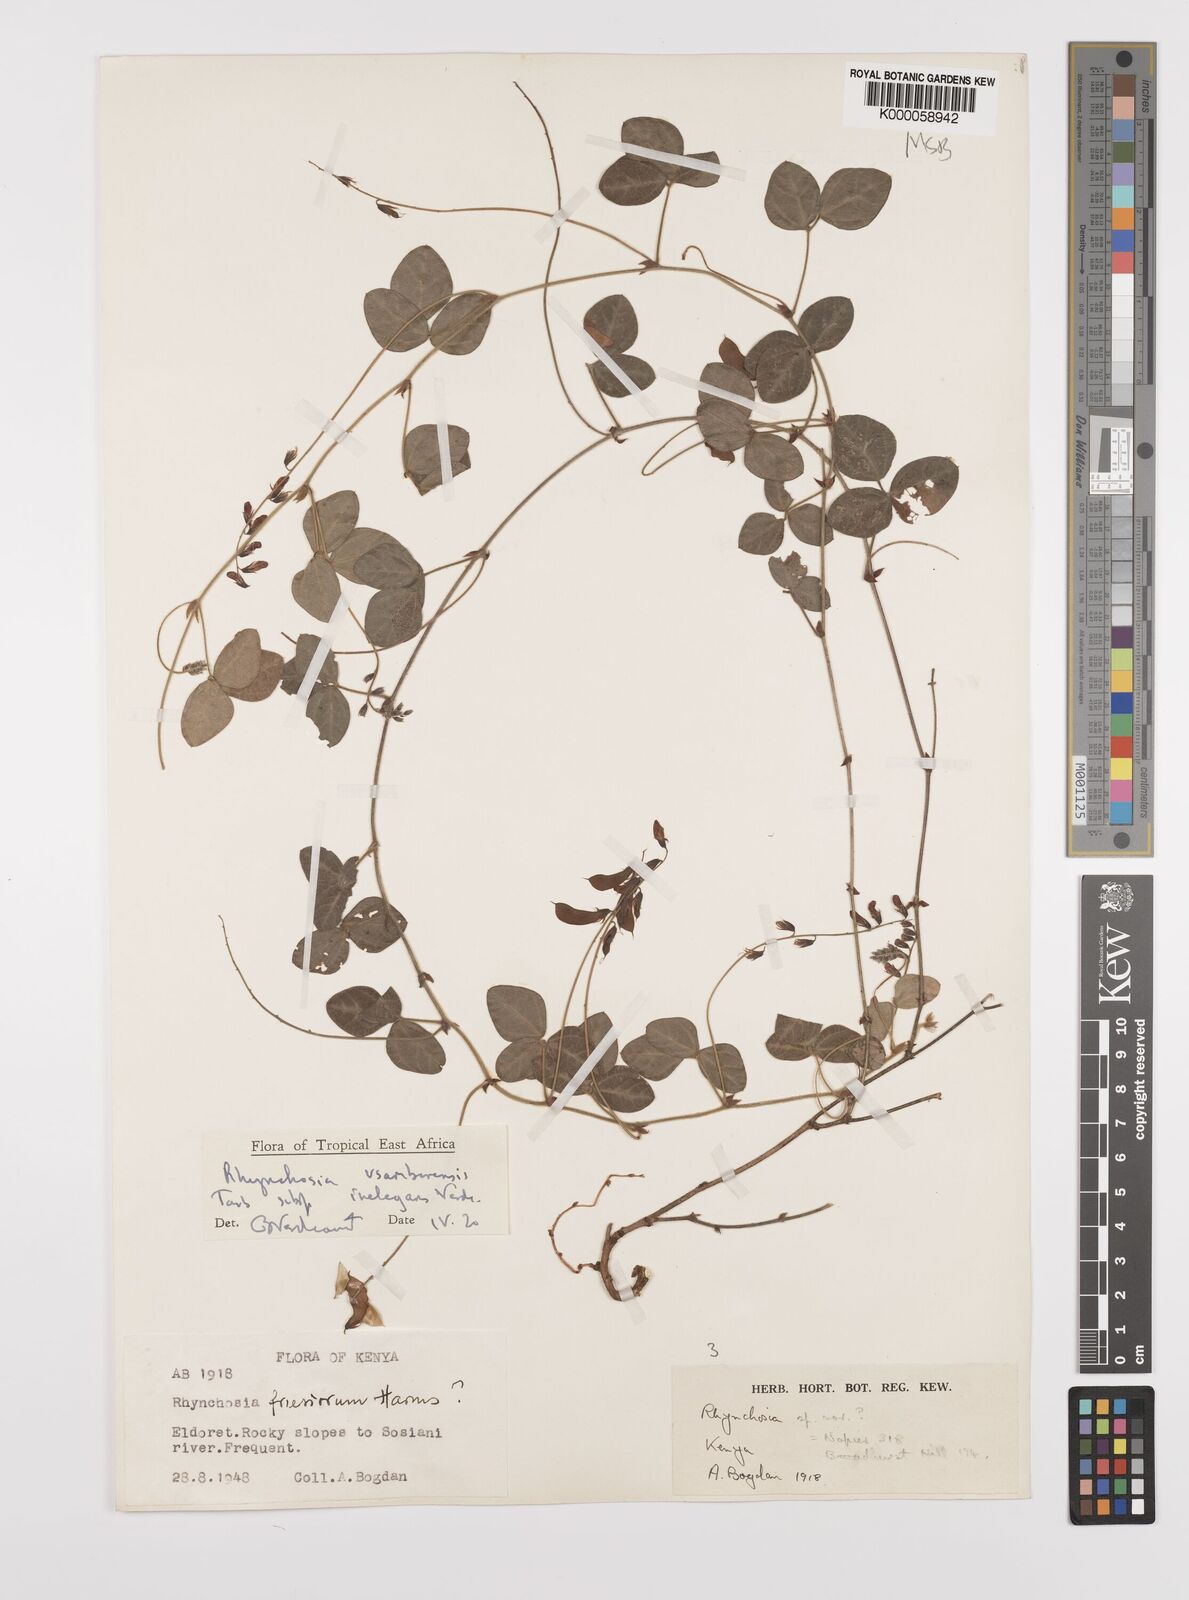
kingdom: Plantae
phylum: Tracheophyta
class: Magnoliopsida
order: Fabales
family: Fabaceae
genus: Rhynchosia
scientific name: Rhynchosia usambarensis
